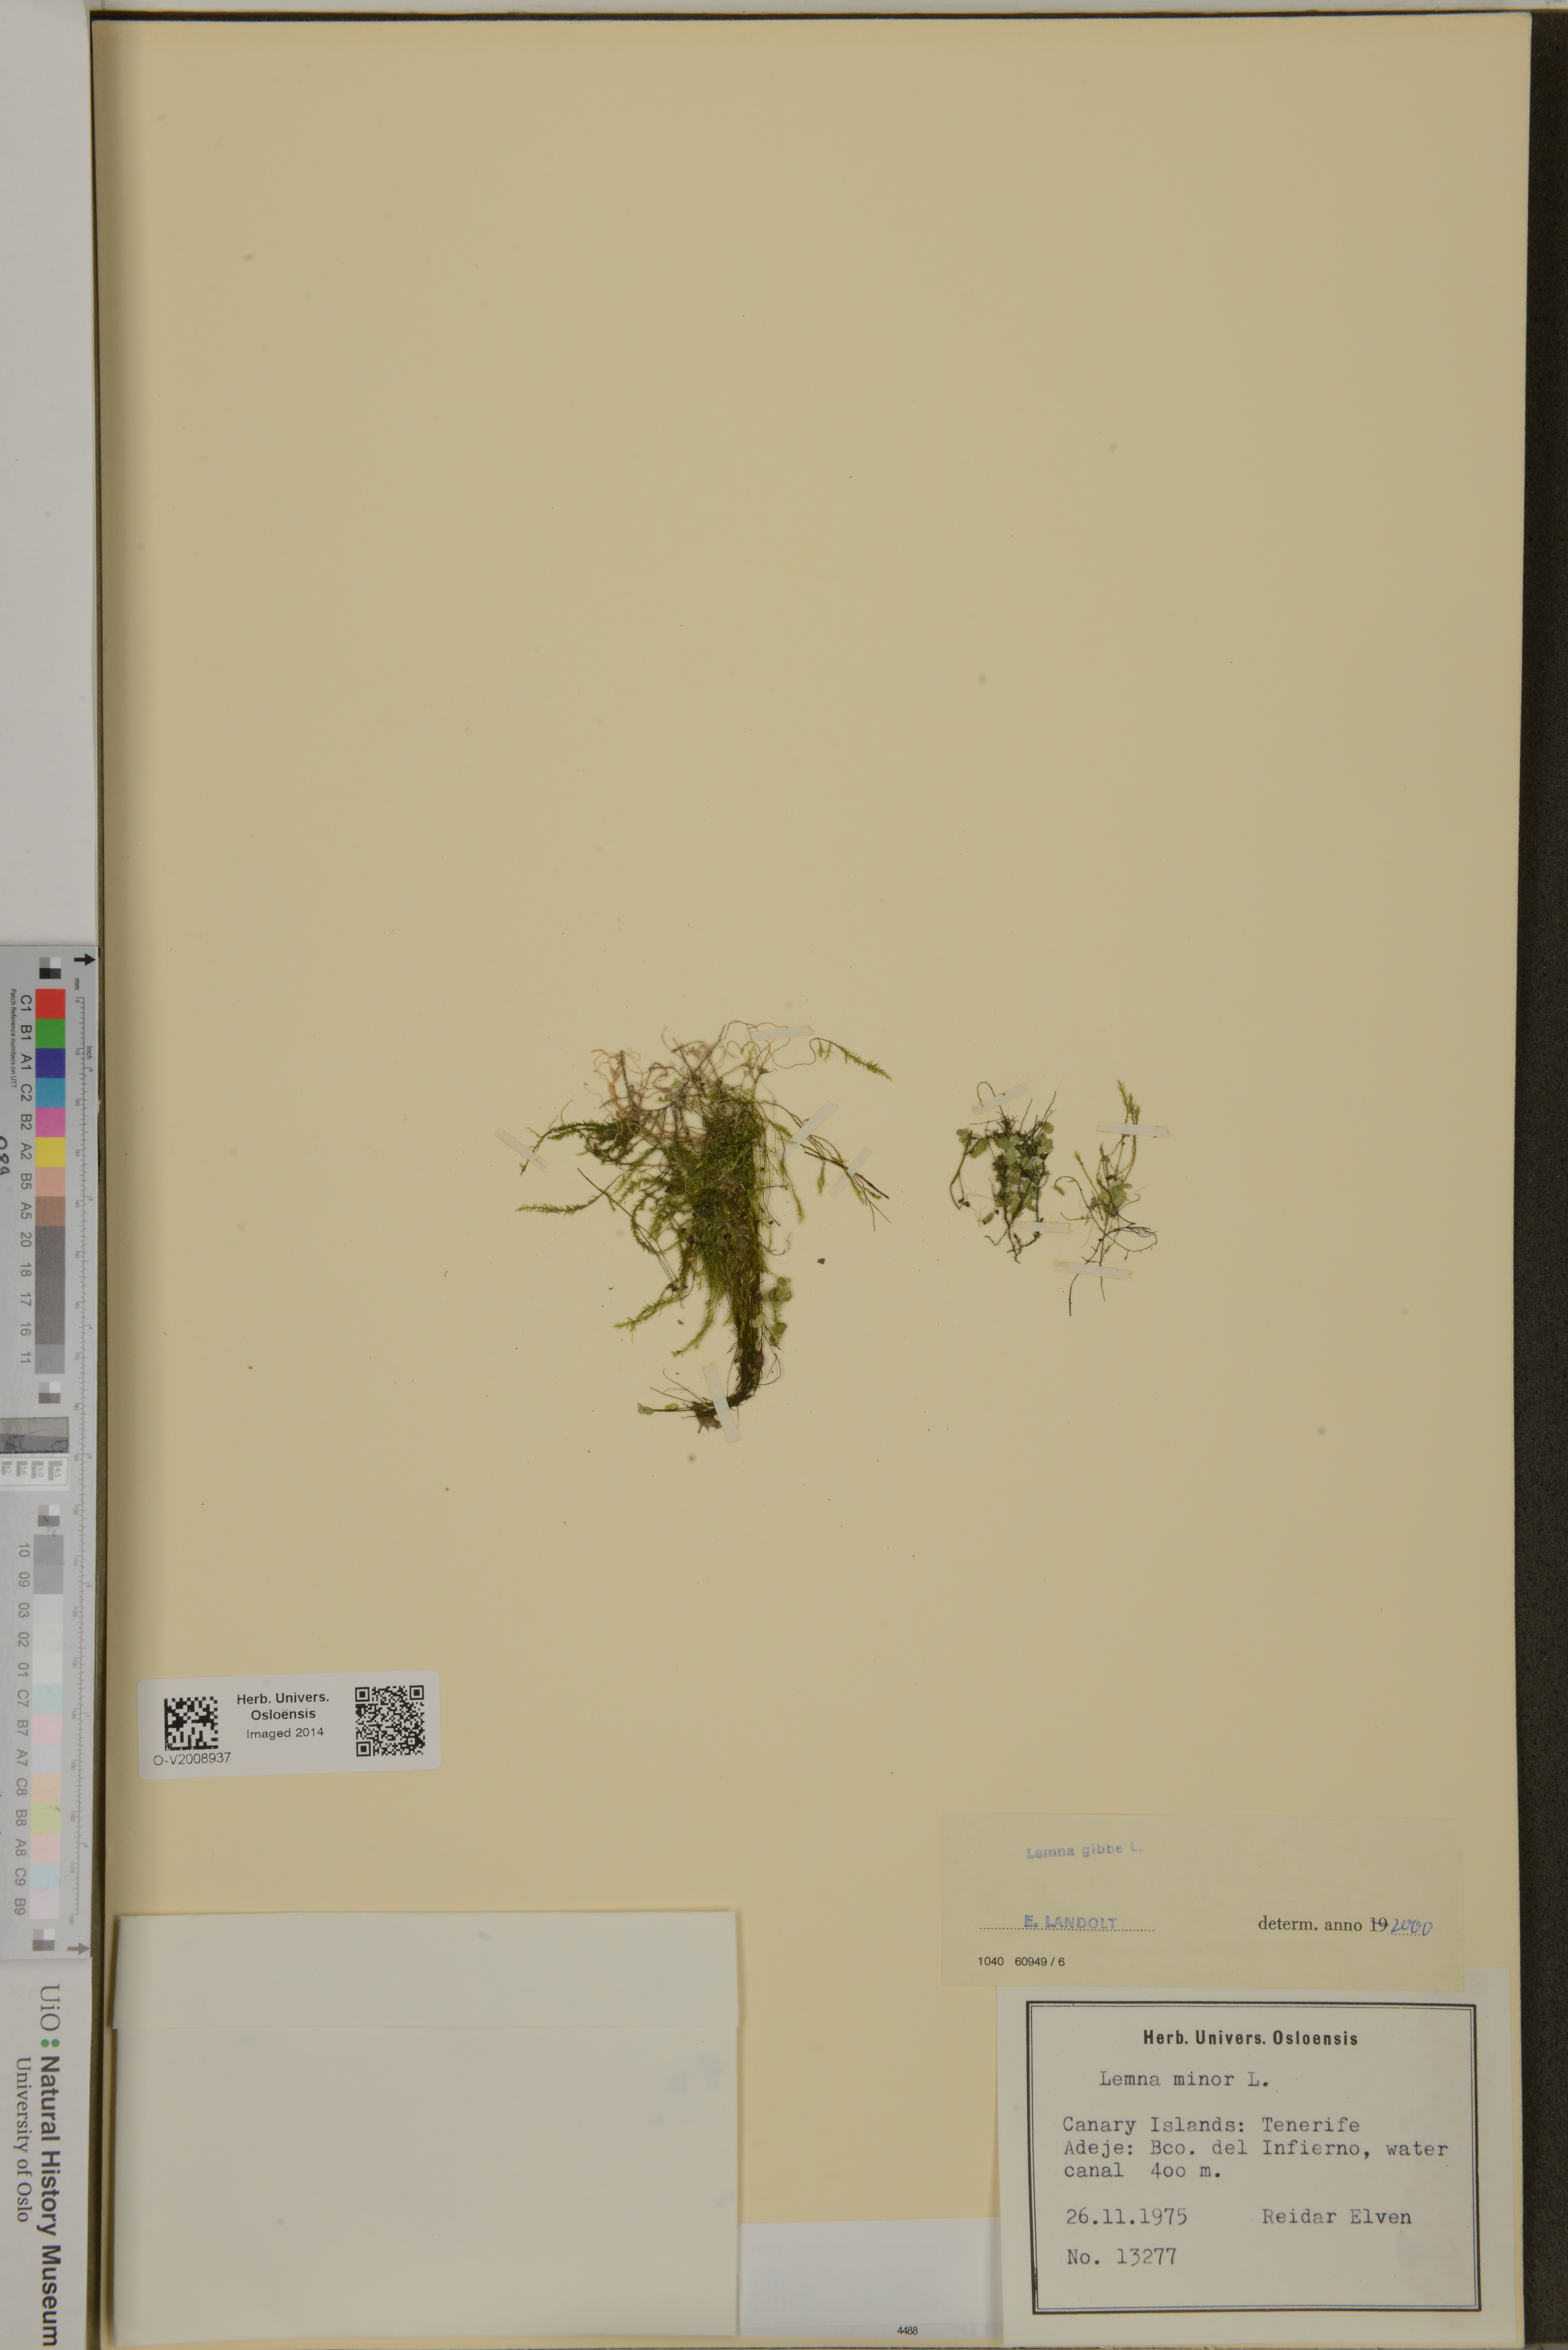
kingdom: Plantae
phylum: Tracheophyta
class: Liliopsida
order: Alismatales
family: Araceae
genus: Lemna
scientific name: Lemna gibba
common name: Fat duckweed
